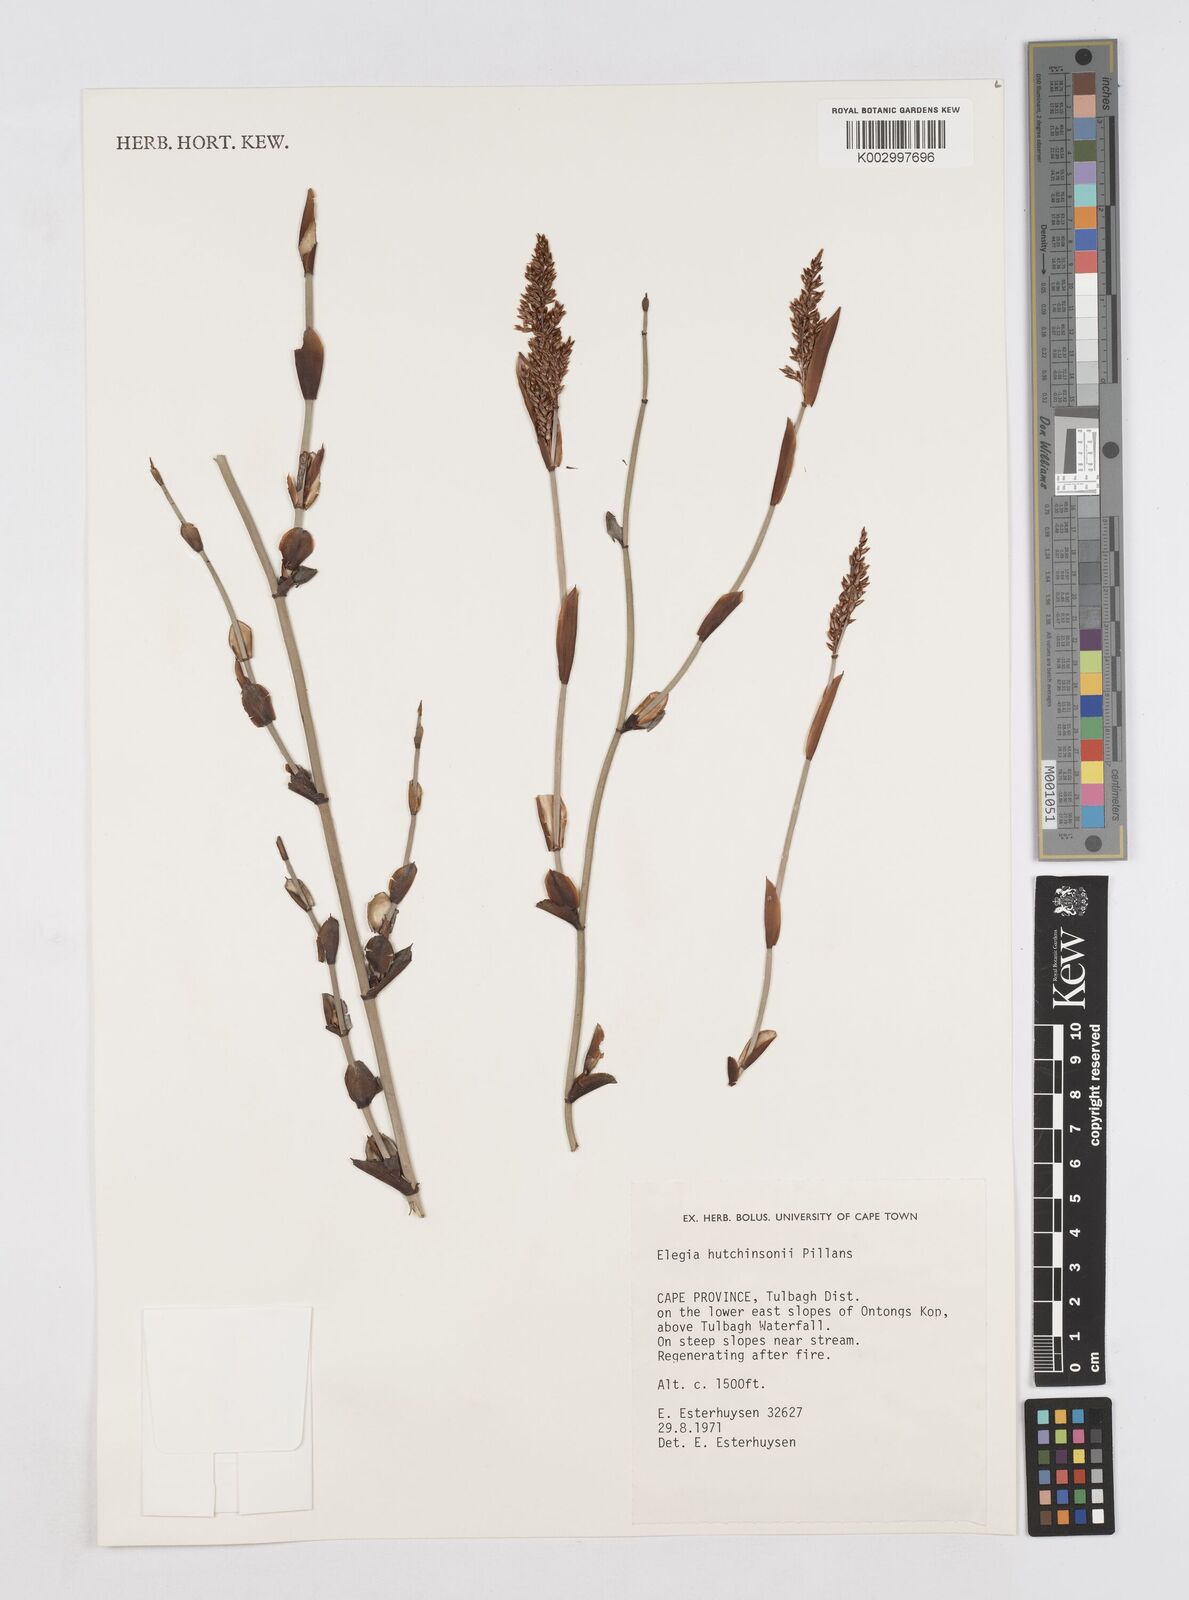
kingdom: Plantae
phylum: Tracheophyta
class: Liliopsida
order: Poales
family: Restionaceae
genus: Elegia
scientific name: Elegia hutchinsonii
